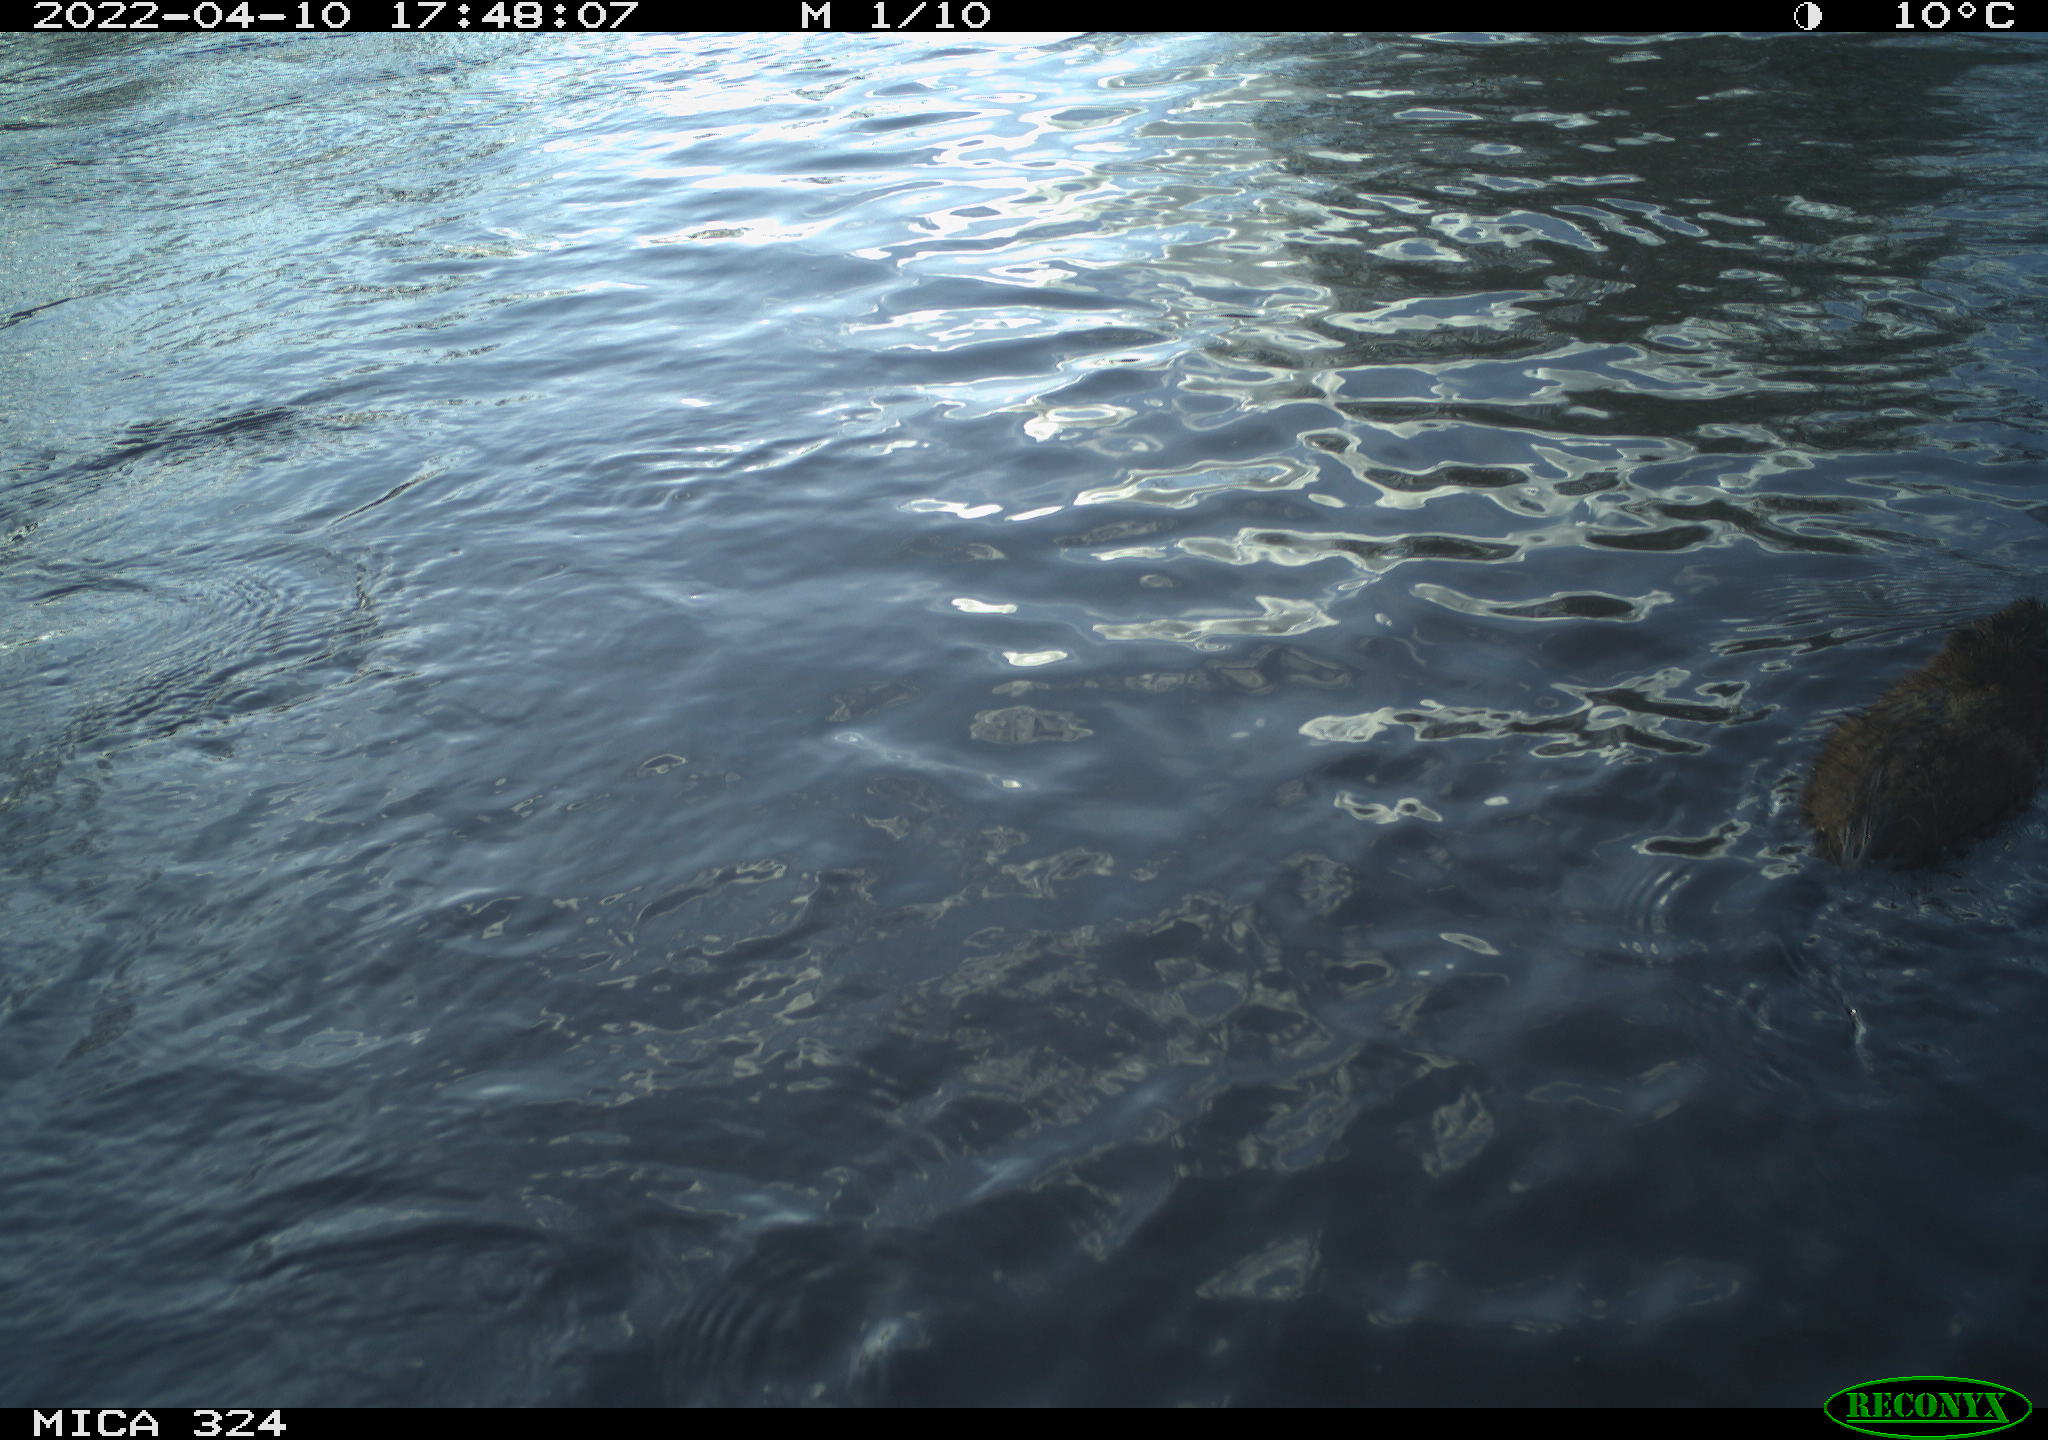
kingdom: Animalia
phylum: Chordata
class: Mammalia
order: Rodentia
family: Cricetidae
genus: Ondatra
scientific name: Ondatra zibethicus
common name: Muskrat
